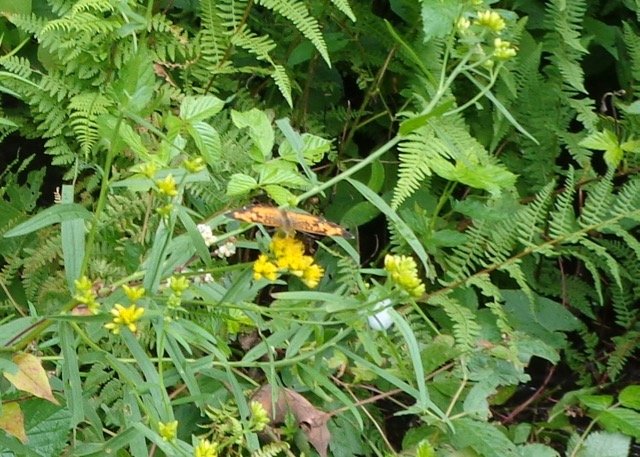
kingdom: Animalia
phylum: Arthropoda
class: Insecta
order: Lepidoptera
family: Nymphalidae
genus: Phyciodes
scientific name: Phyciodes tharos
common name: Pearl Crescent
